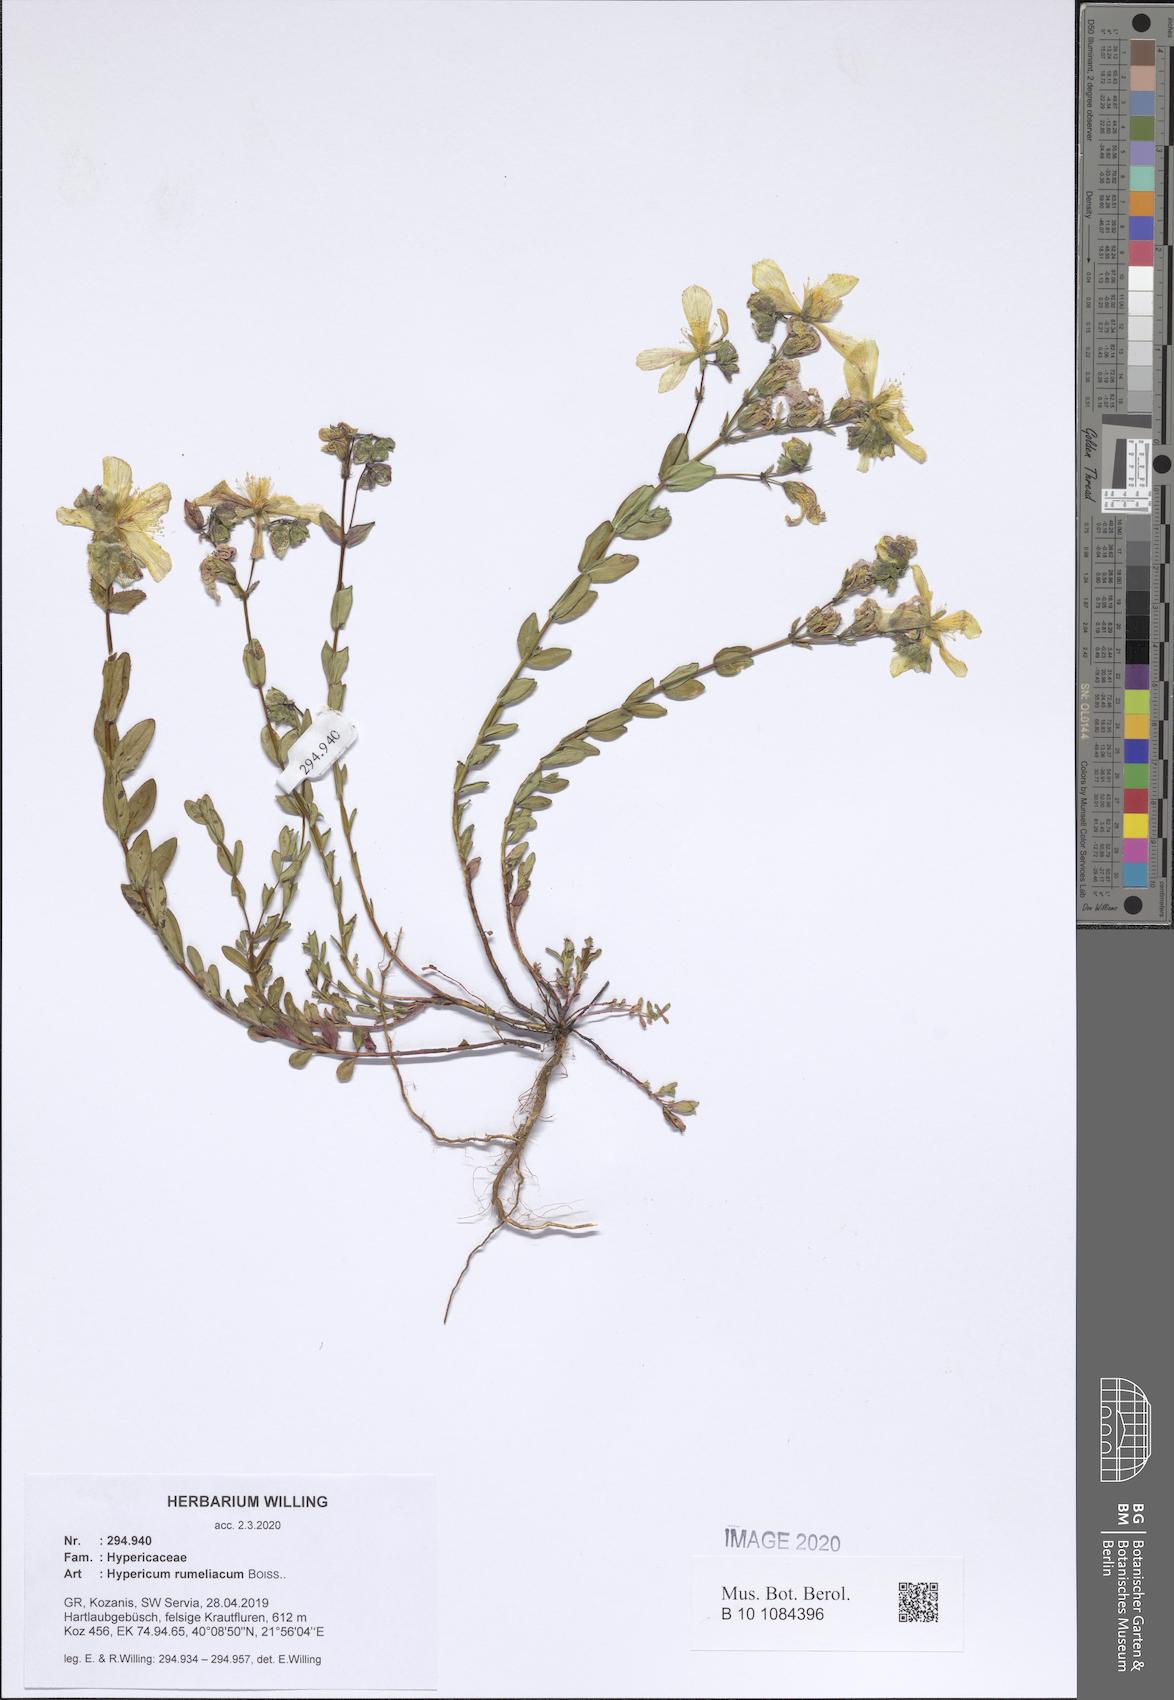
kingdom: Plantae
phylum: Tracheophyta
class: Magnoliopsida
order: Malpighiales
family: Hypericaceae
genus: Hypericum
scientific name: Hypericum rumeliacum
